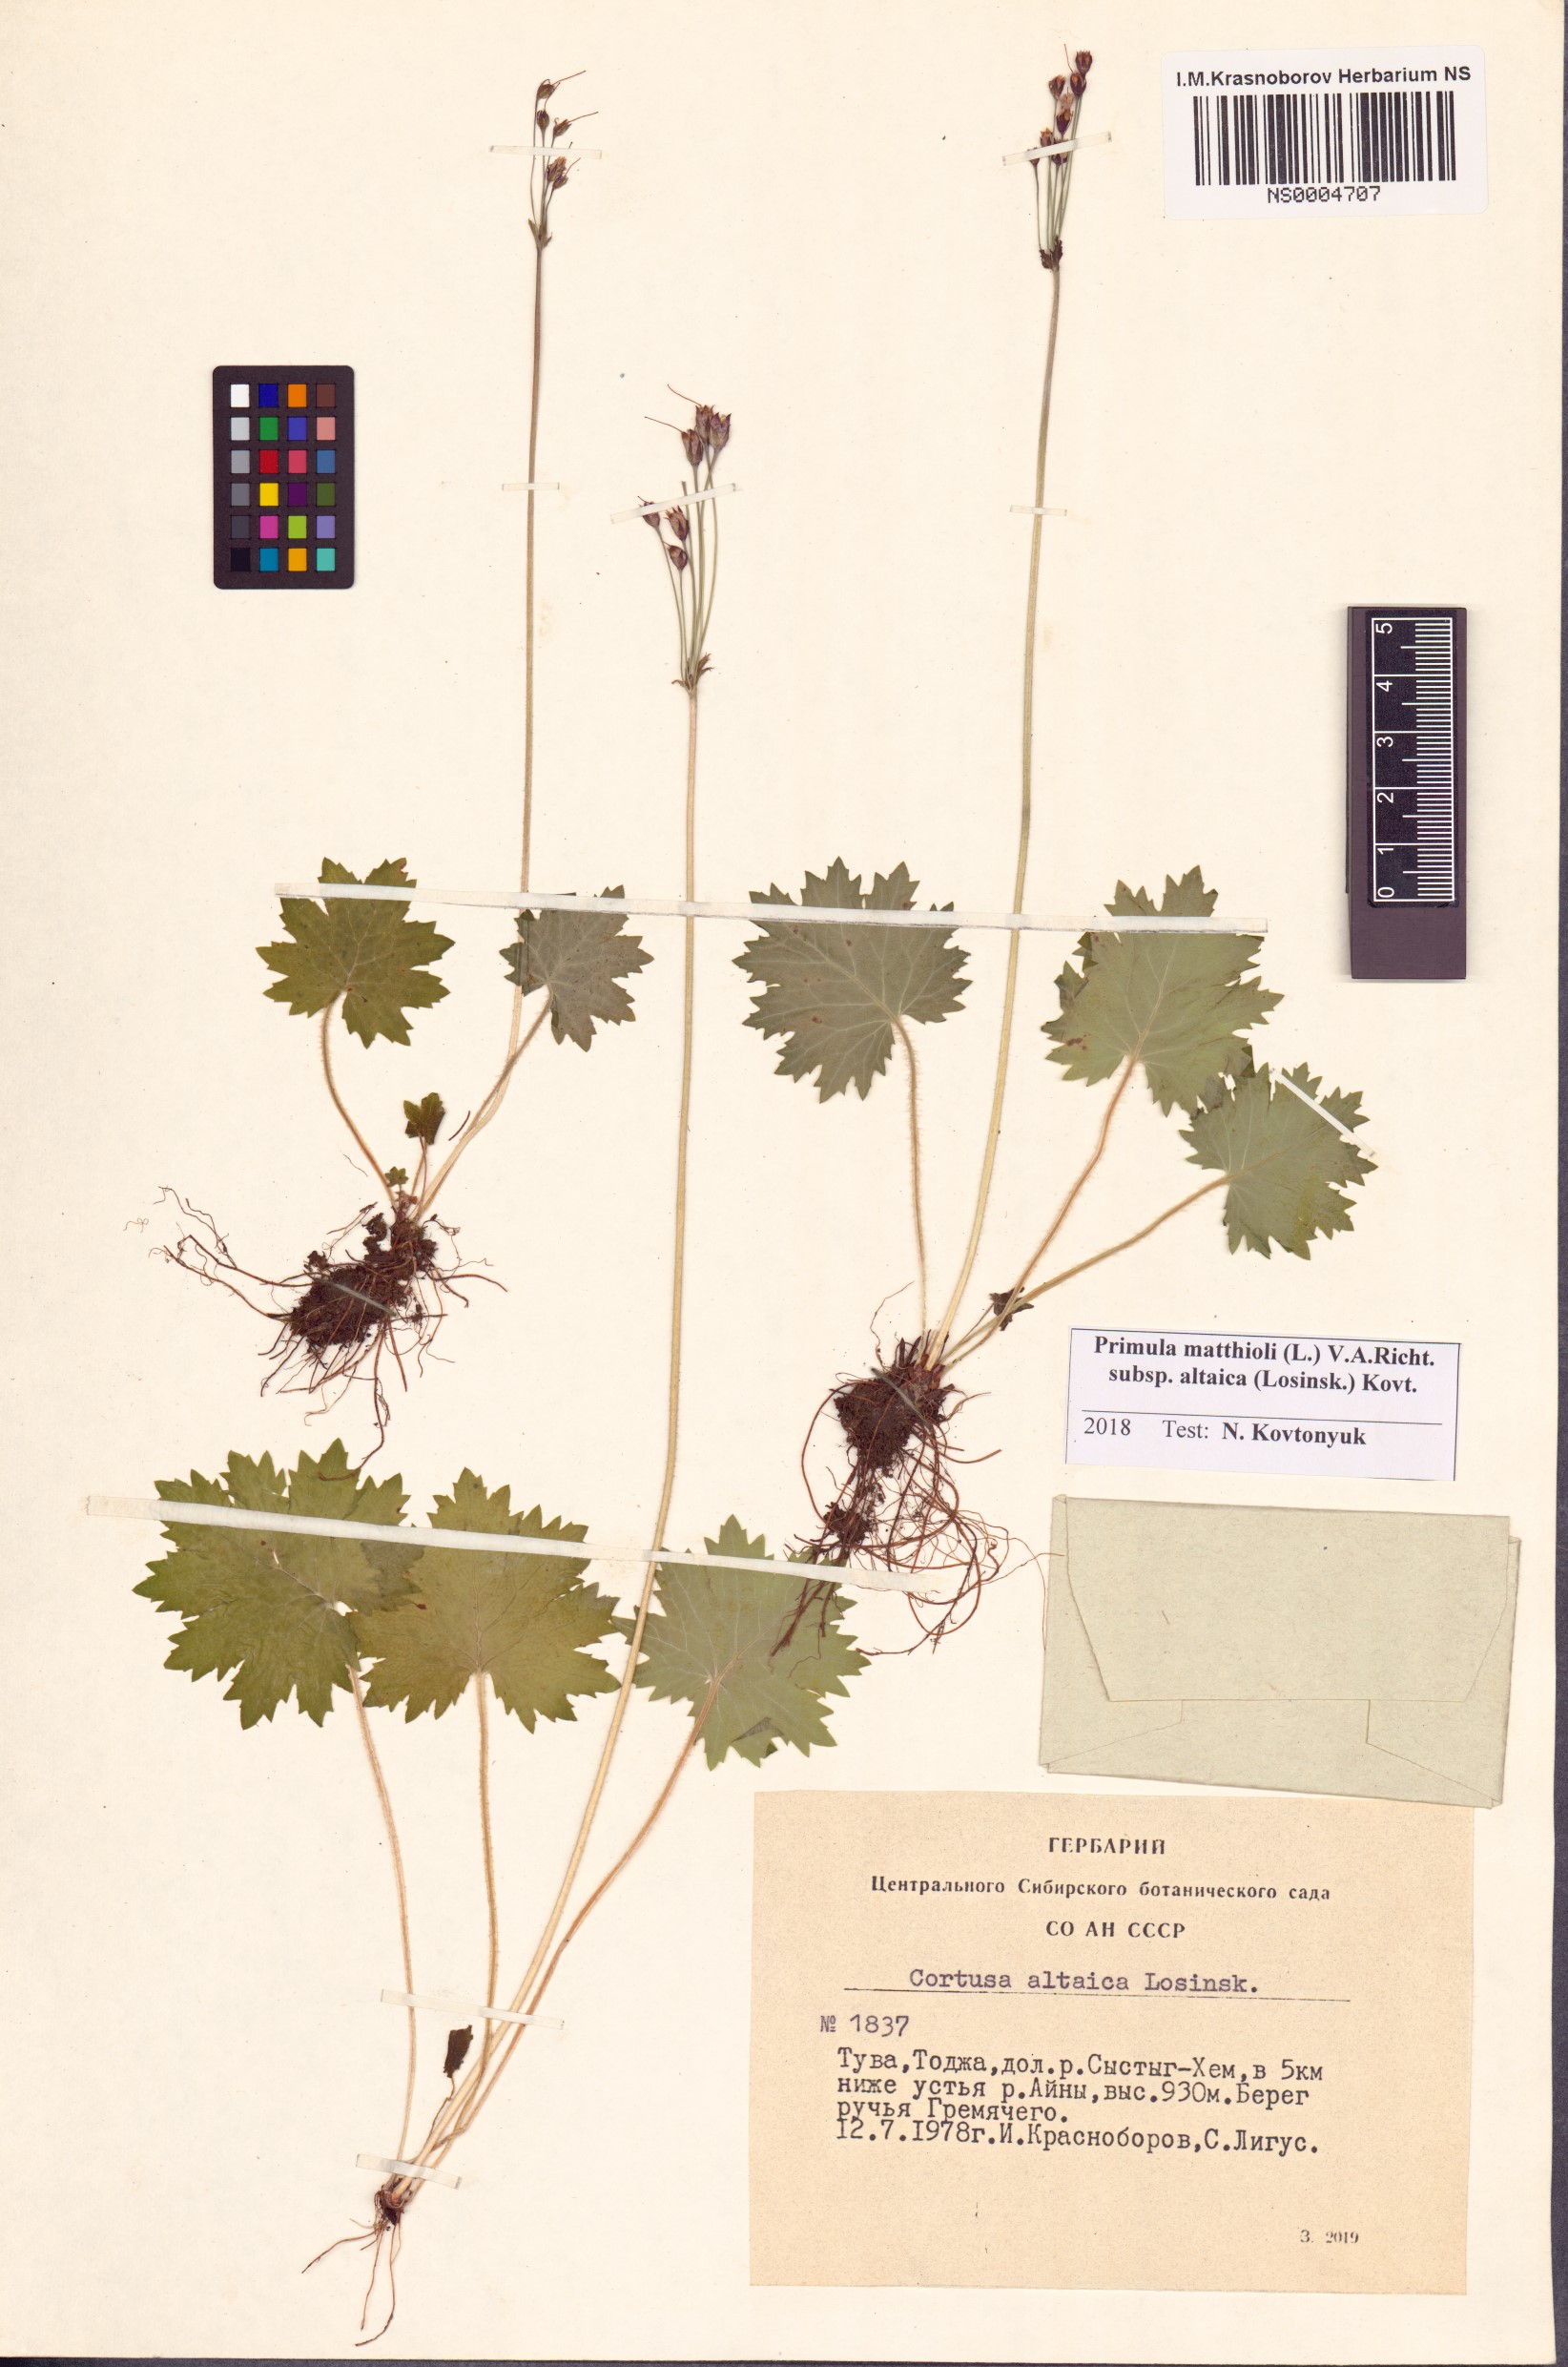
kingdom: Plantae
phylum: Tracheophyta
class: Magnoliopsida
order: Ericales
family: Primulaceae
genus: Primula
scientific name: Primula matthioli
